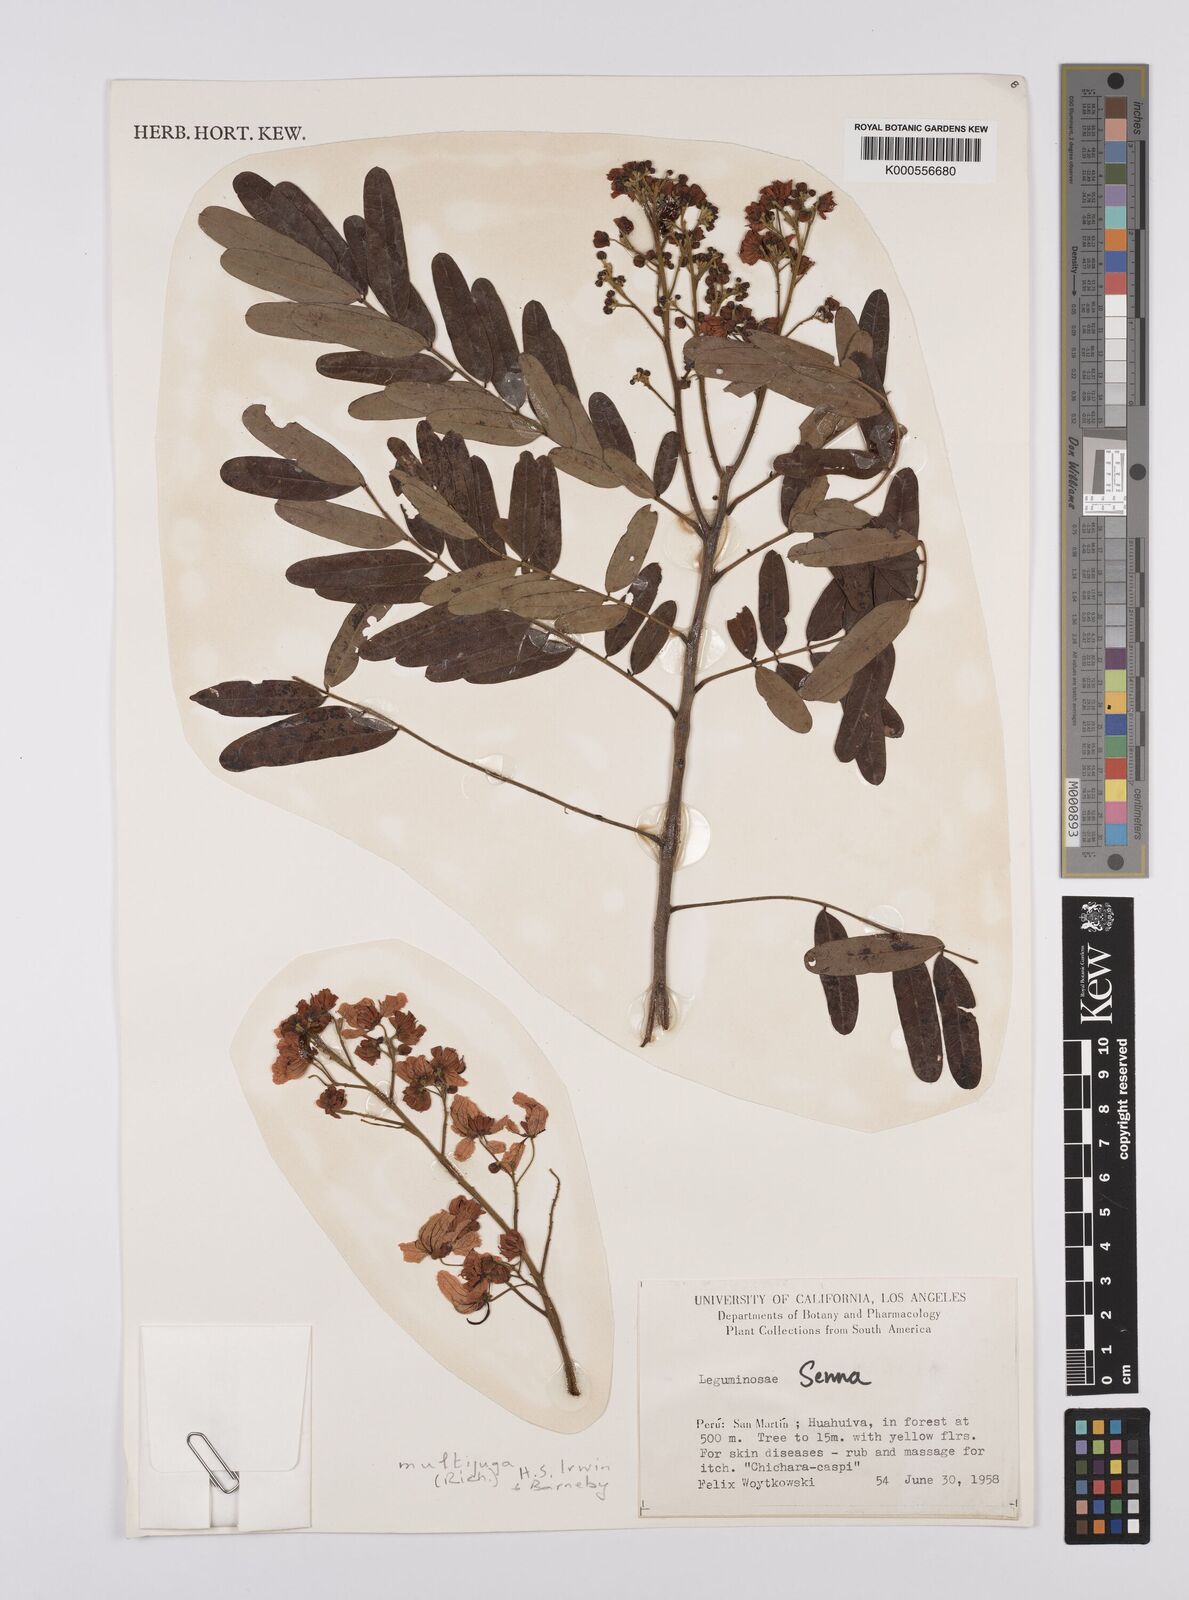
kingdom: Plantae
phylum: Tracheophyta
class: Magnoliopsida
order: Fabales
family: Fabaceae
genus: Senna
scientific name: Senna
